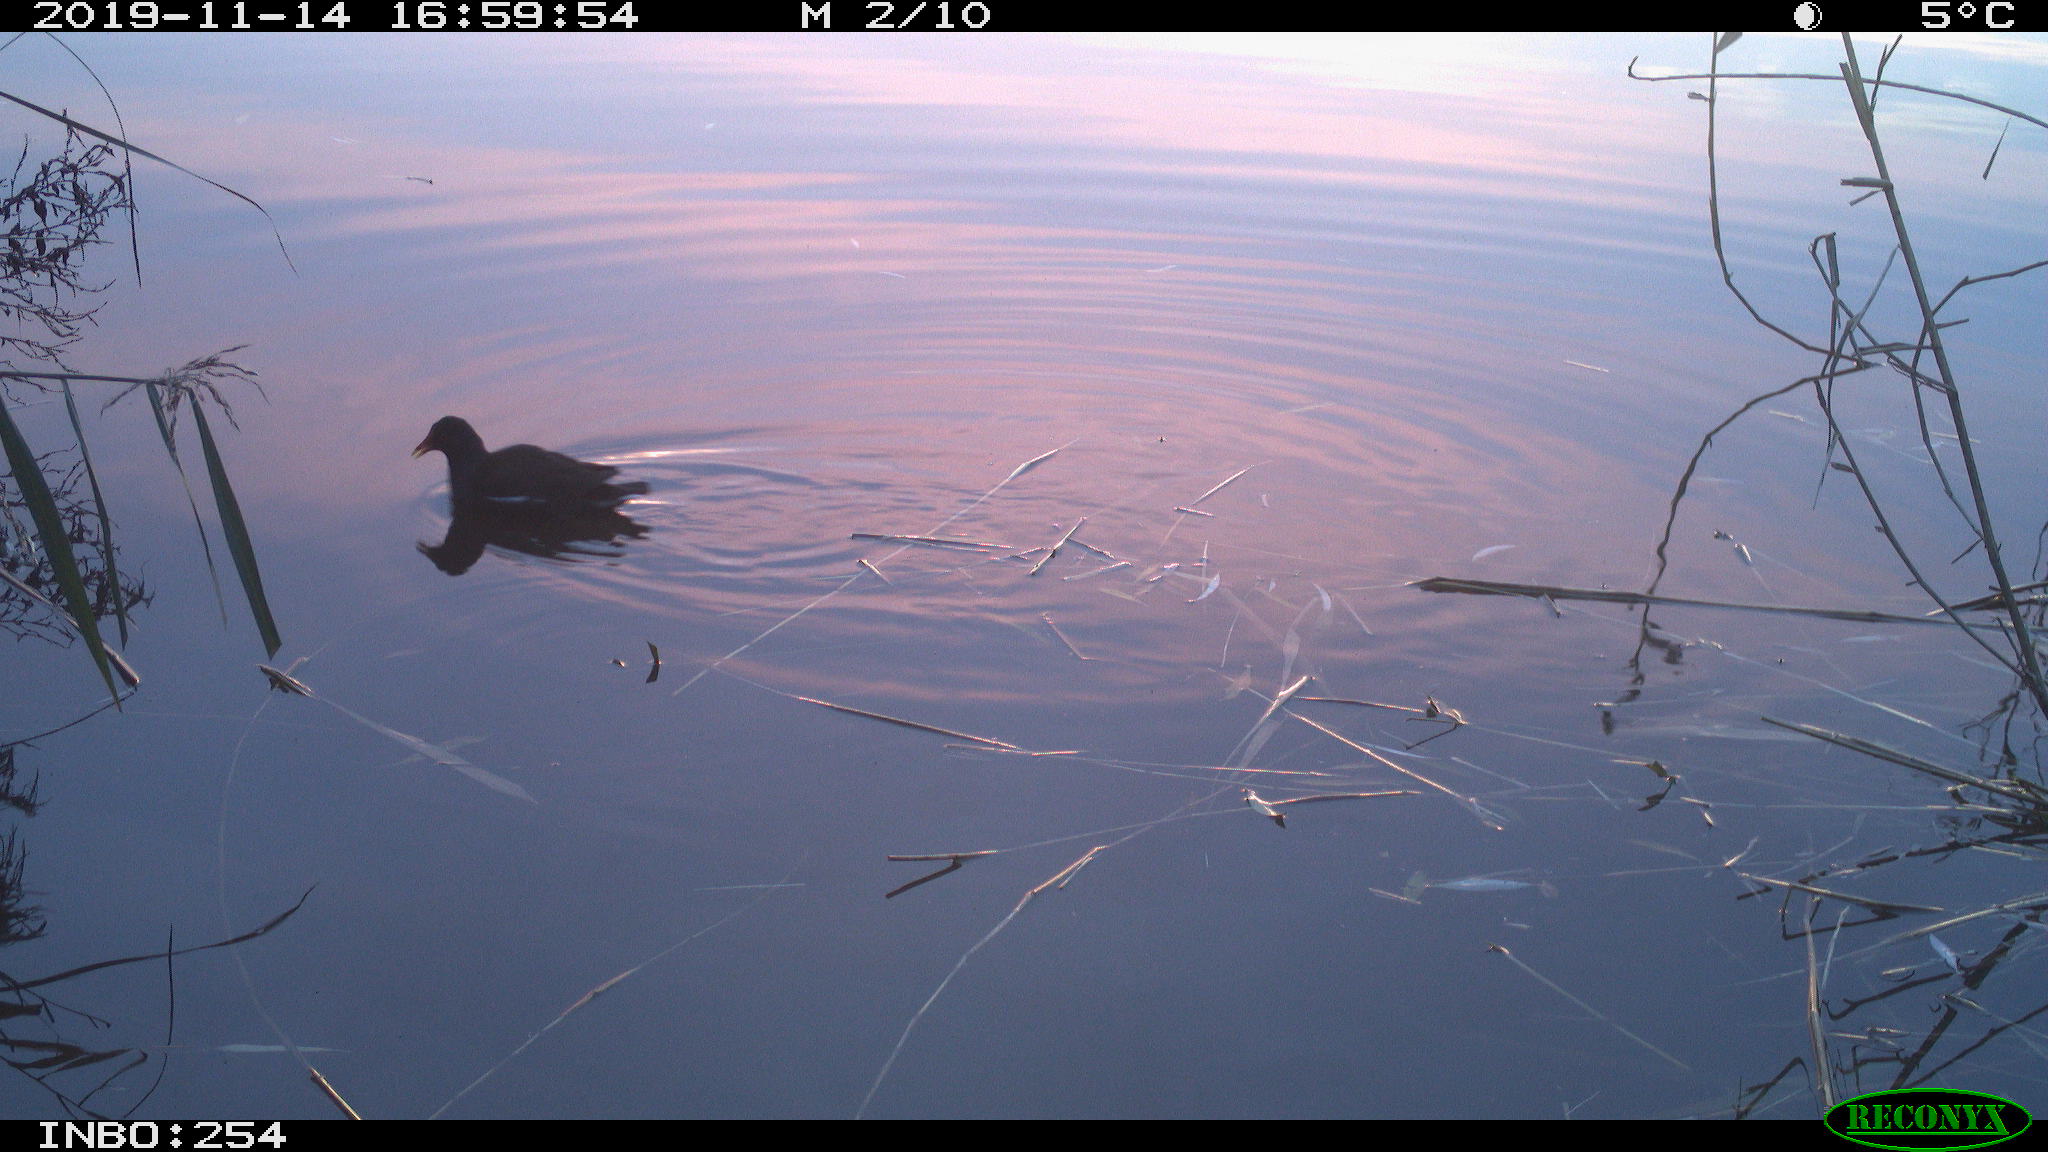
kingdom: Animalia
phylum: Chordata
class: Aves
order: Gruiformes
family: Rallidae
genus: Gallinula
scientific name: Gallinula chloropus
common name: Common moorhen
